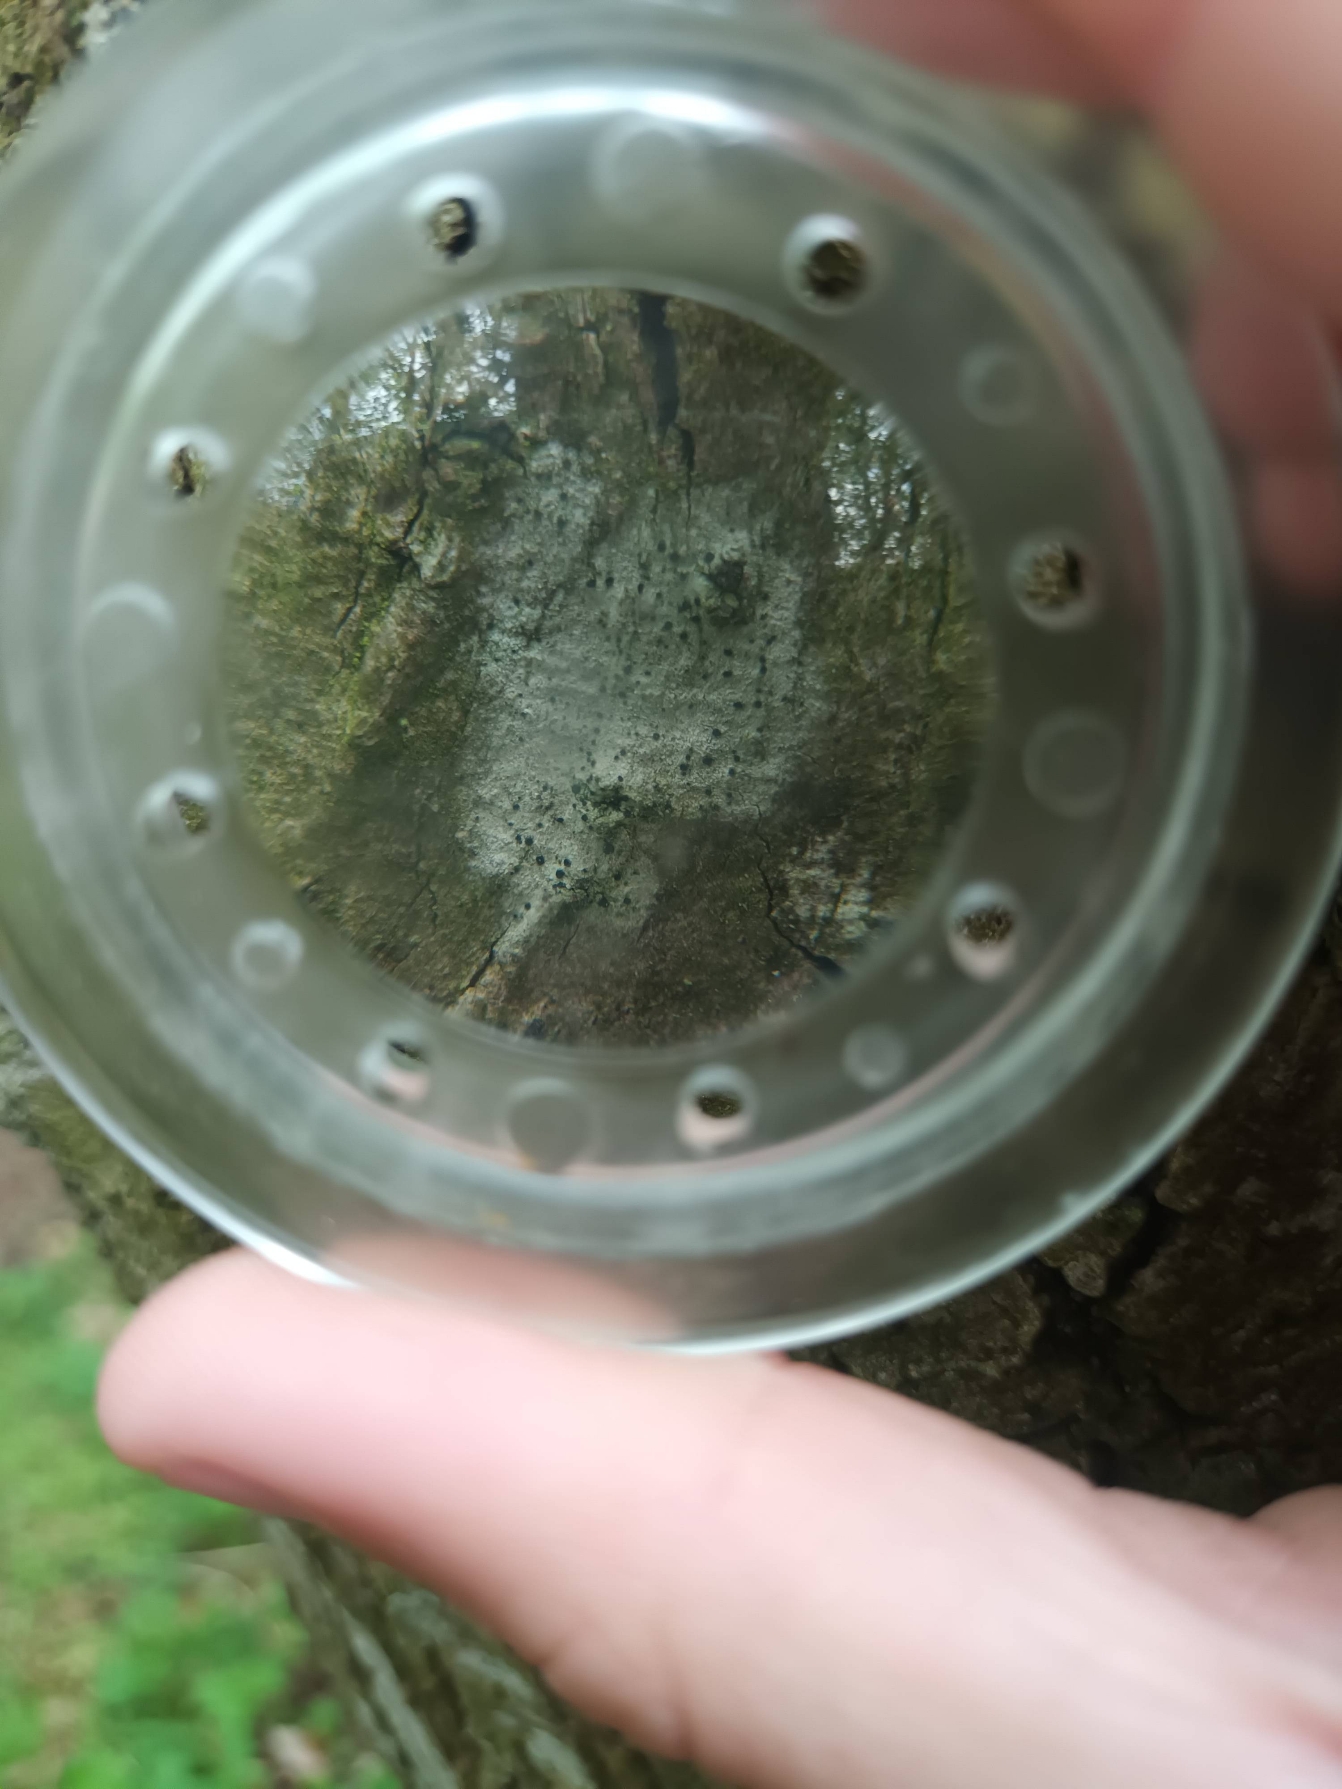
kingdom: Fungi
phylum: Ascomycota
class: Lecanoromycetes
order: Lecanorales
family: Lecanoraceae
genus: Lecidella
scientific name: Lecidella elaeochroma
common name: Grågrøn skivelav
